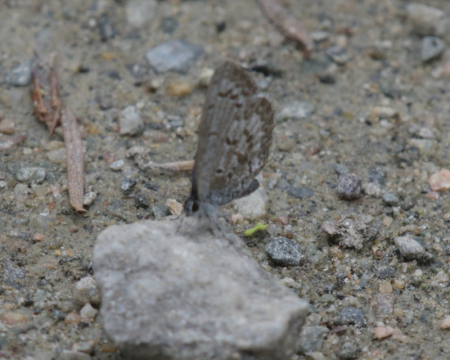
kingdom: Animalia
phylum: Arthropoda
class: Insecta
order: Lepidoptera
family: Lycaenidae
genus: Celastrina
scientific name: Celastrina lucia
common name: Northern Spring Azure
